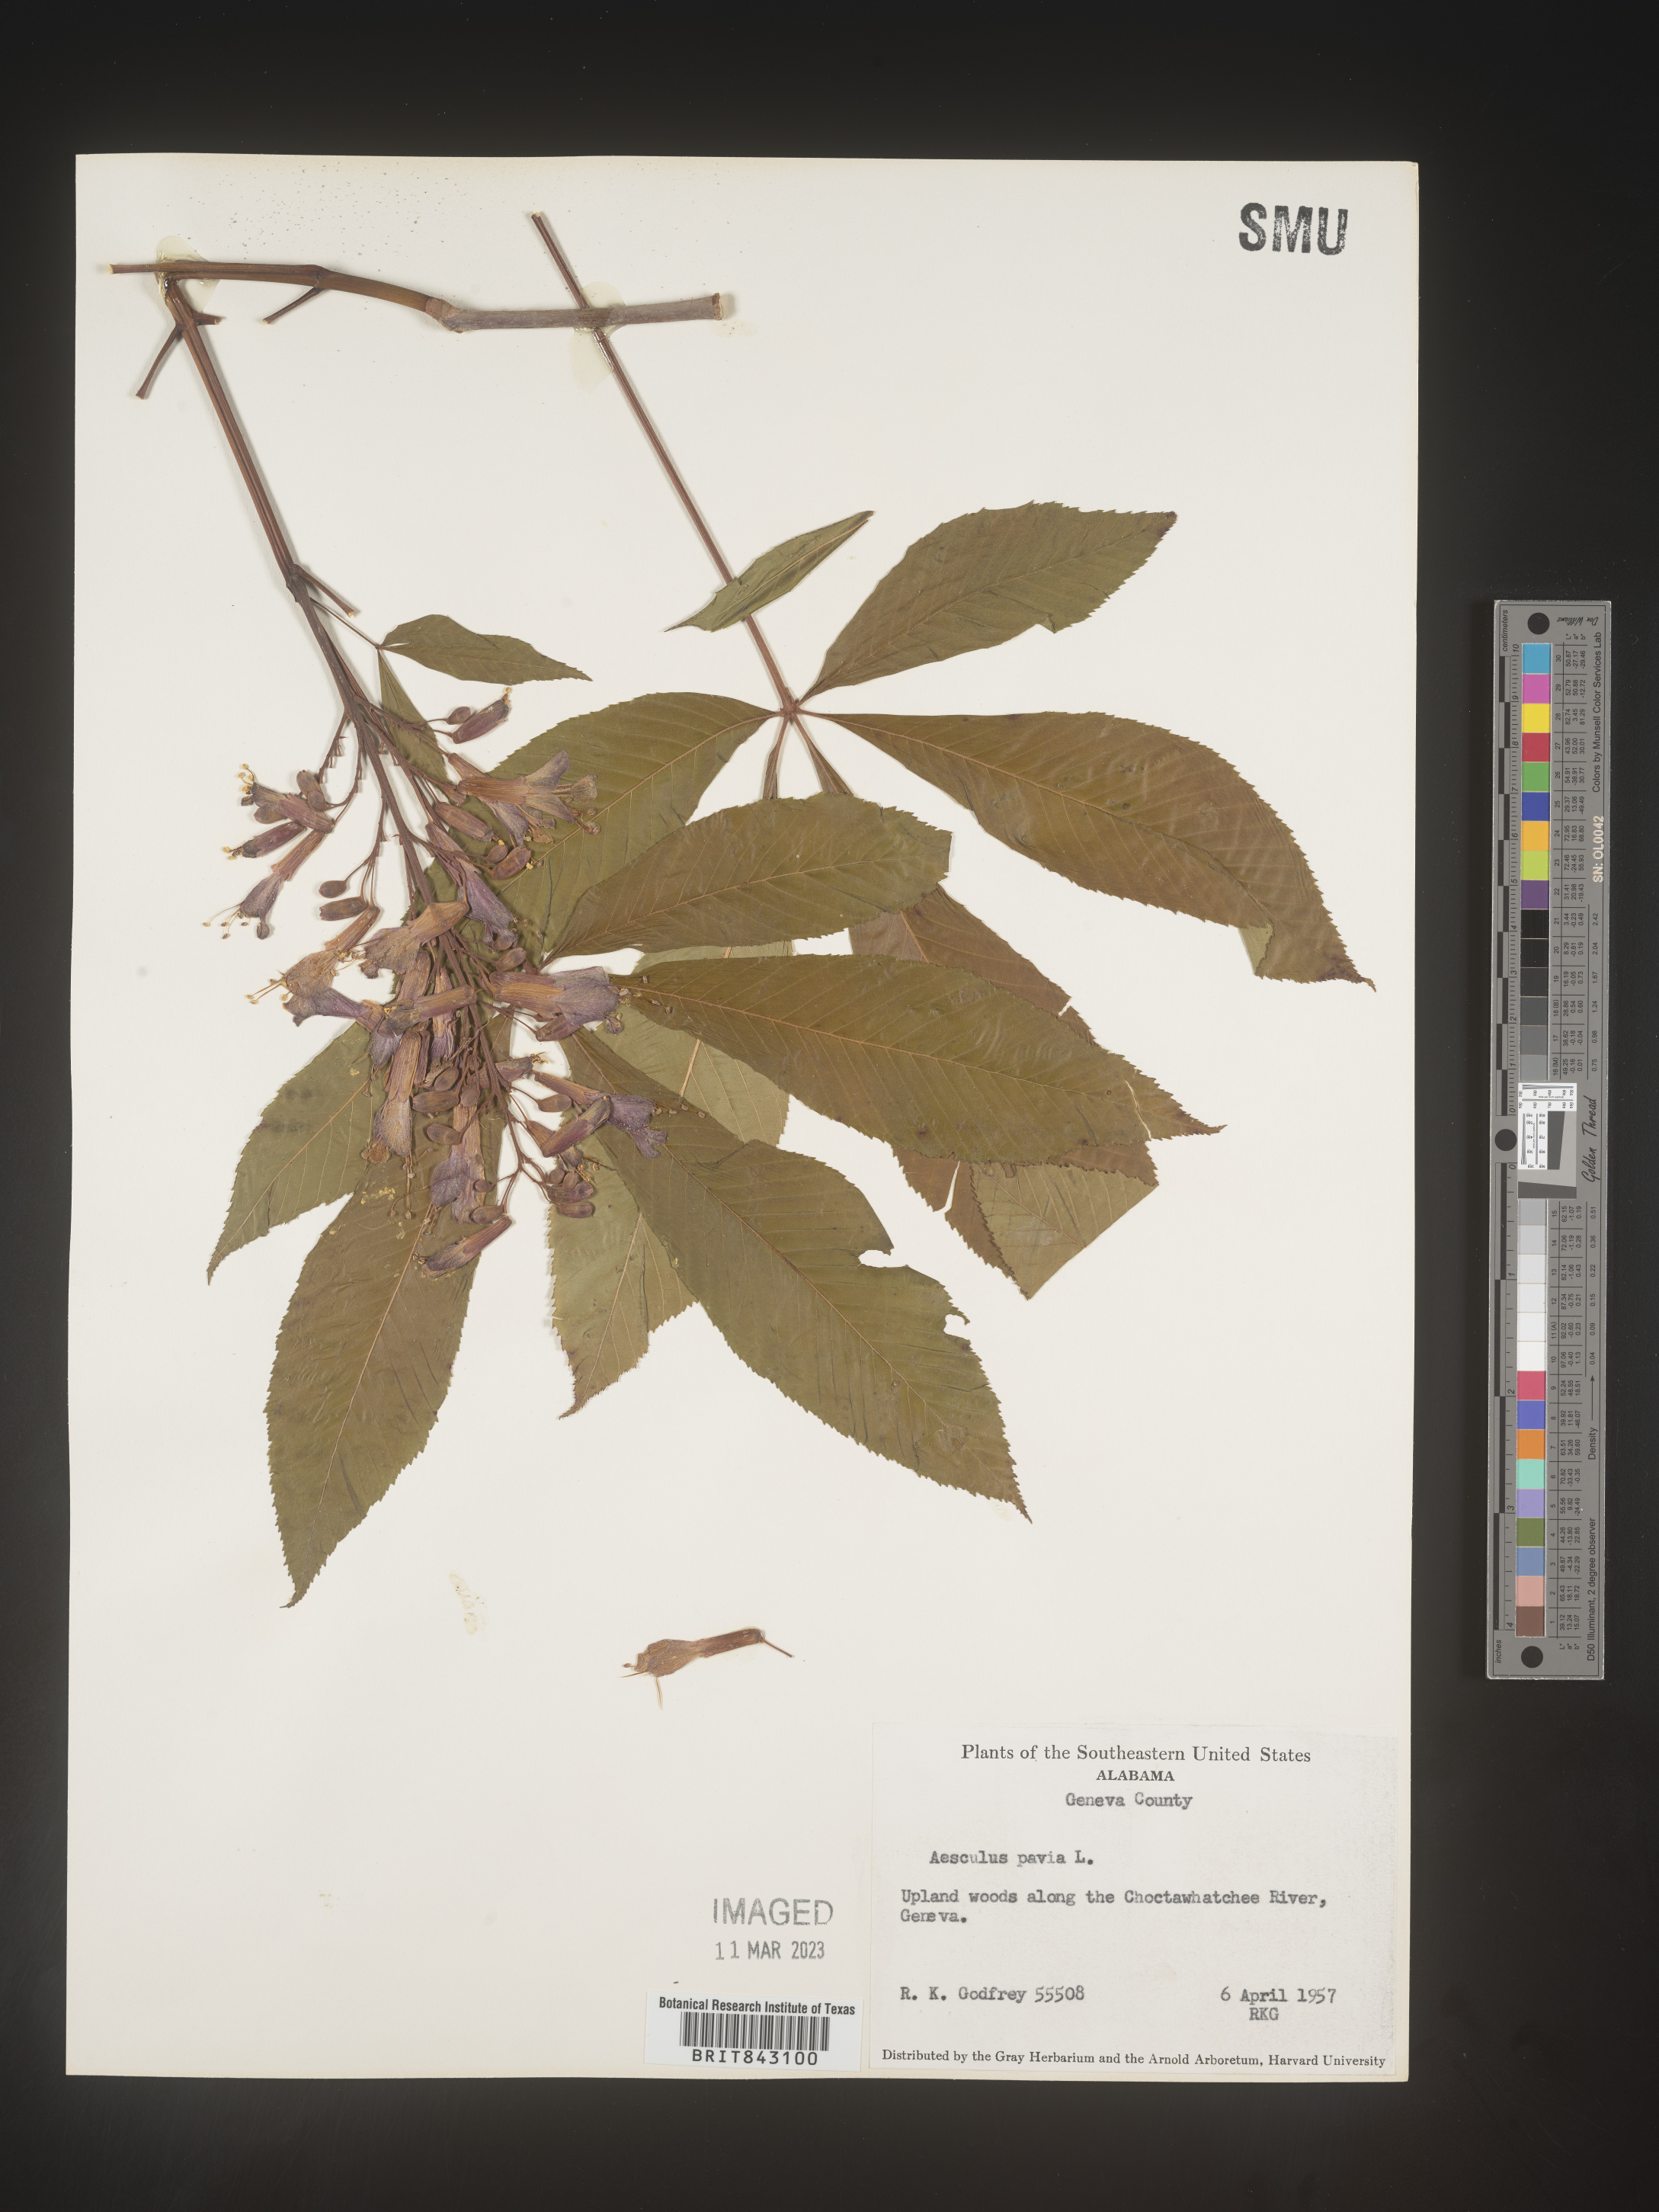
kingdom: Plantae
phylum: Tracheophyta
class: Magnoliopsida
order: Sapindales
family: Sapindaceae
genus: Aesculus
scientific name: Aesculus pavia
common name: Red buckeye
